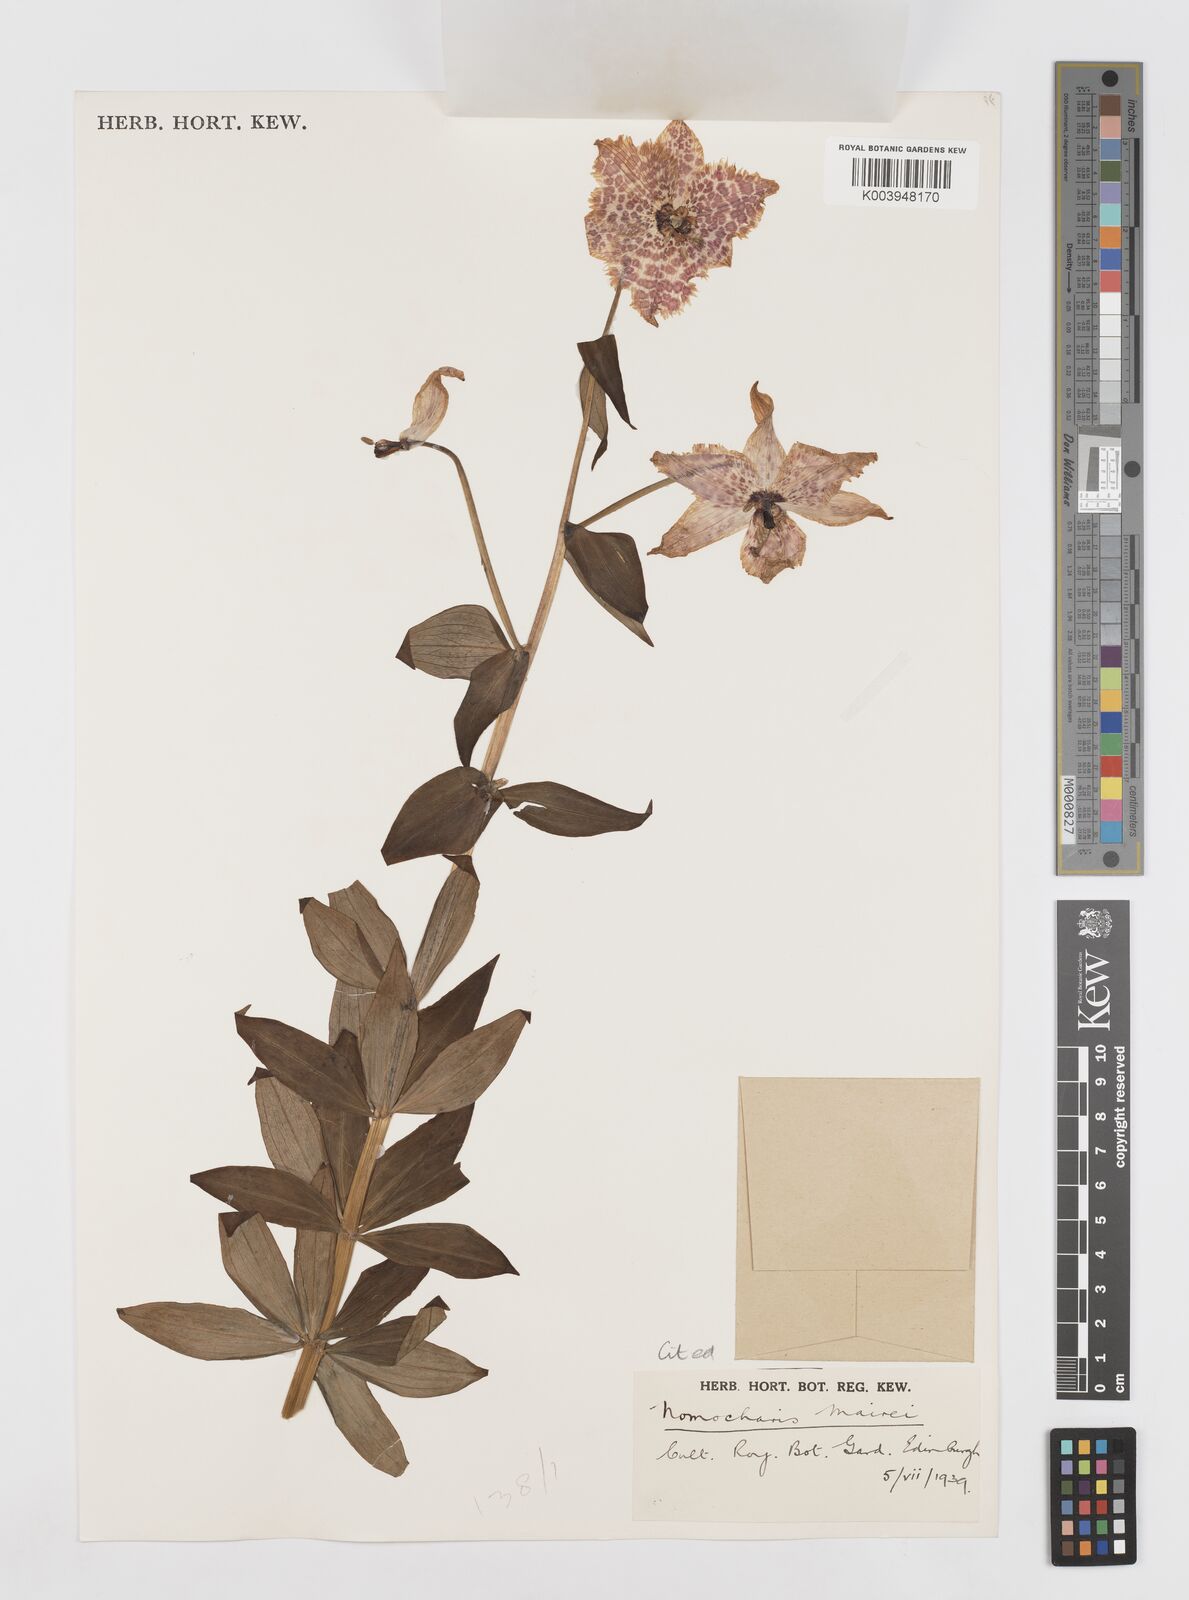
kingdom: Plantae
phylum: Tracheophyta
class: Liliopsida
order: Liliales
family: Liliaceae
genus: Lilium
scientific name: Lilium pardanthinum
